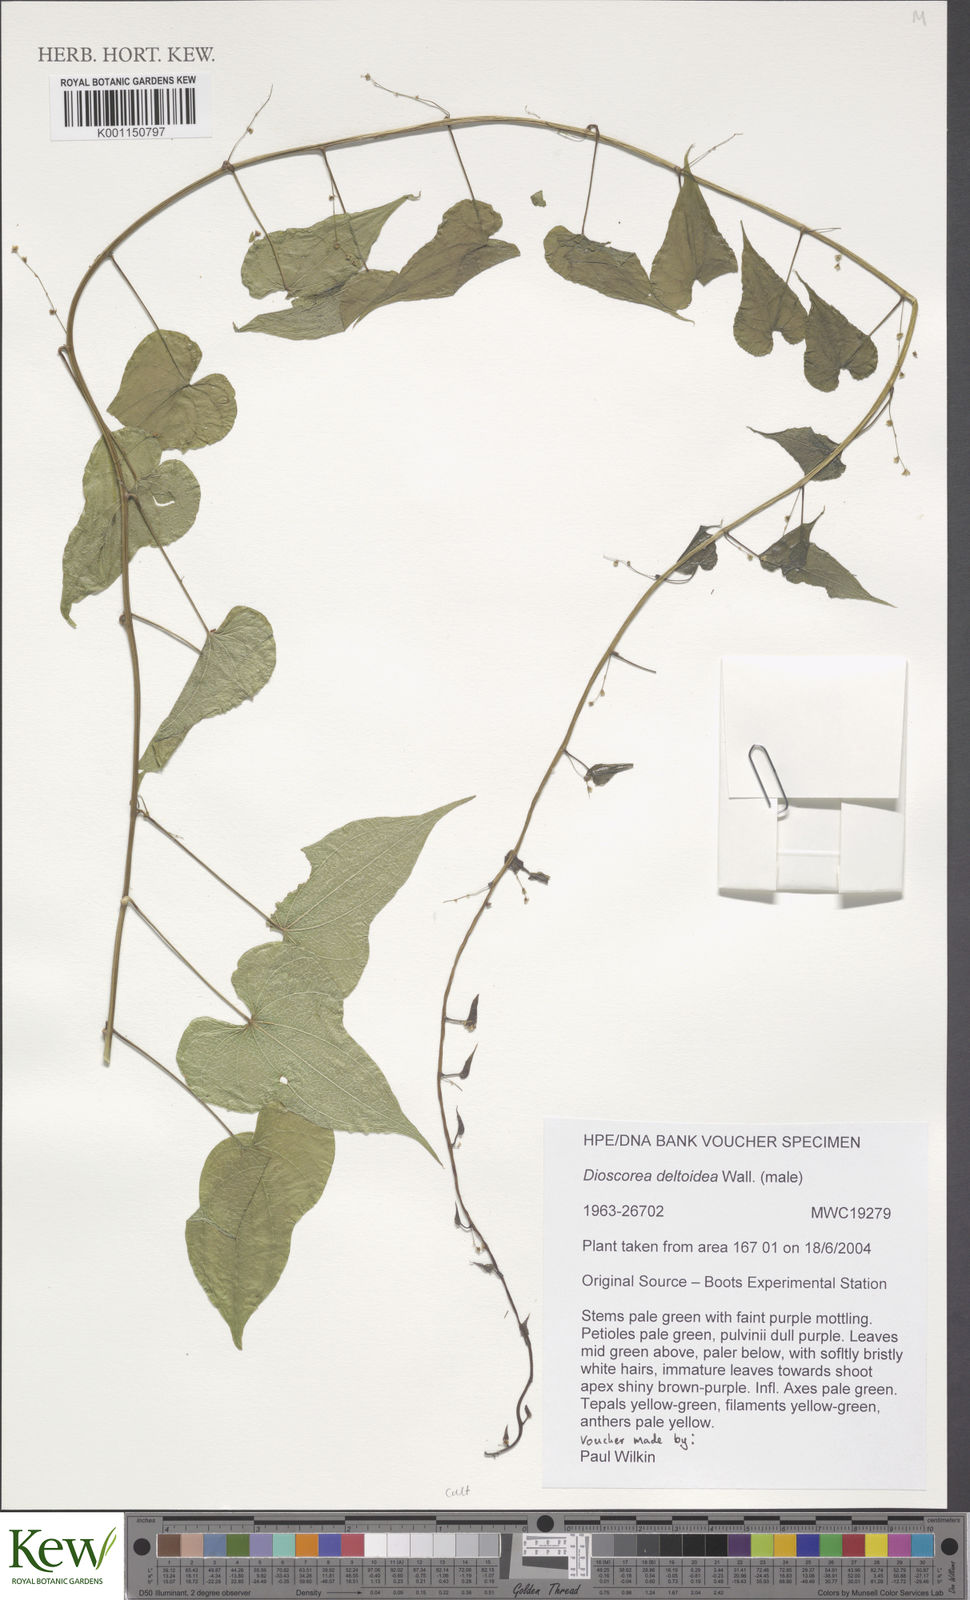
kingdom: Plantae
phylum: Tracheophyta
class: Liliopsida
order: Dioscoreales
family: Dioscoreaceae
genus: Dioscorea
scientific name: Dioscorea deltoidea
